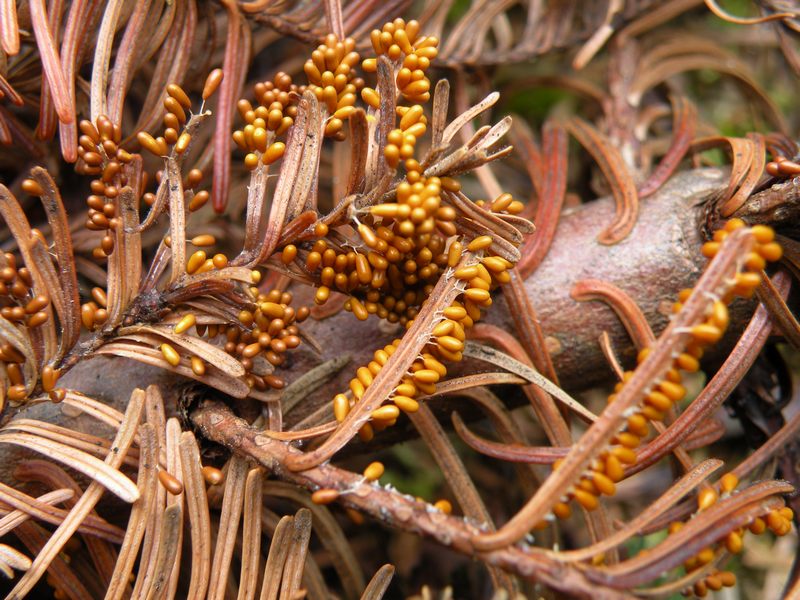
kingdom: Protozoa
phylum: Mycetozoa
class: Myxomycetes
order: Physarales
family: Physaraceae
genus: Leocarpus
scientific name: Leocarpus fragilis
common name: poleret glatfrø
